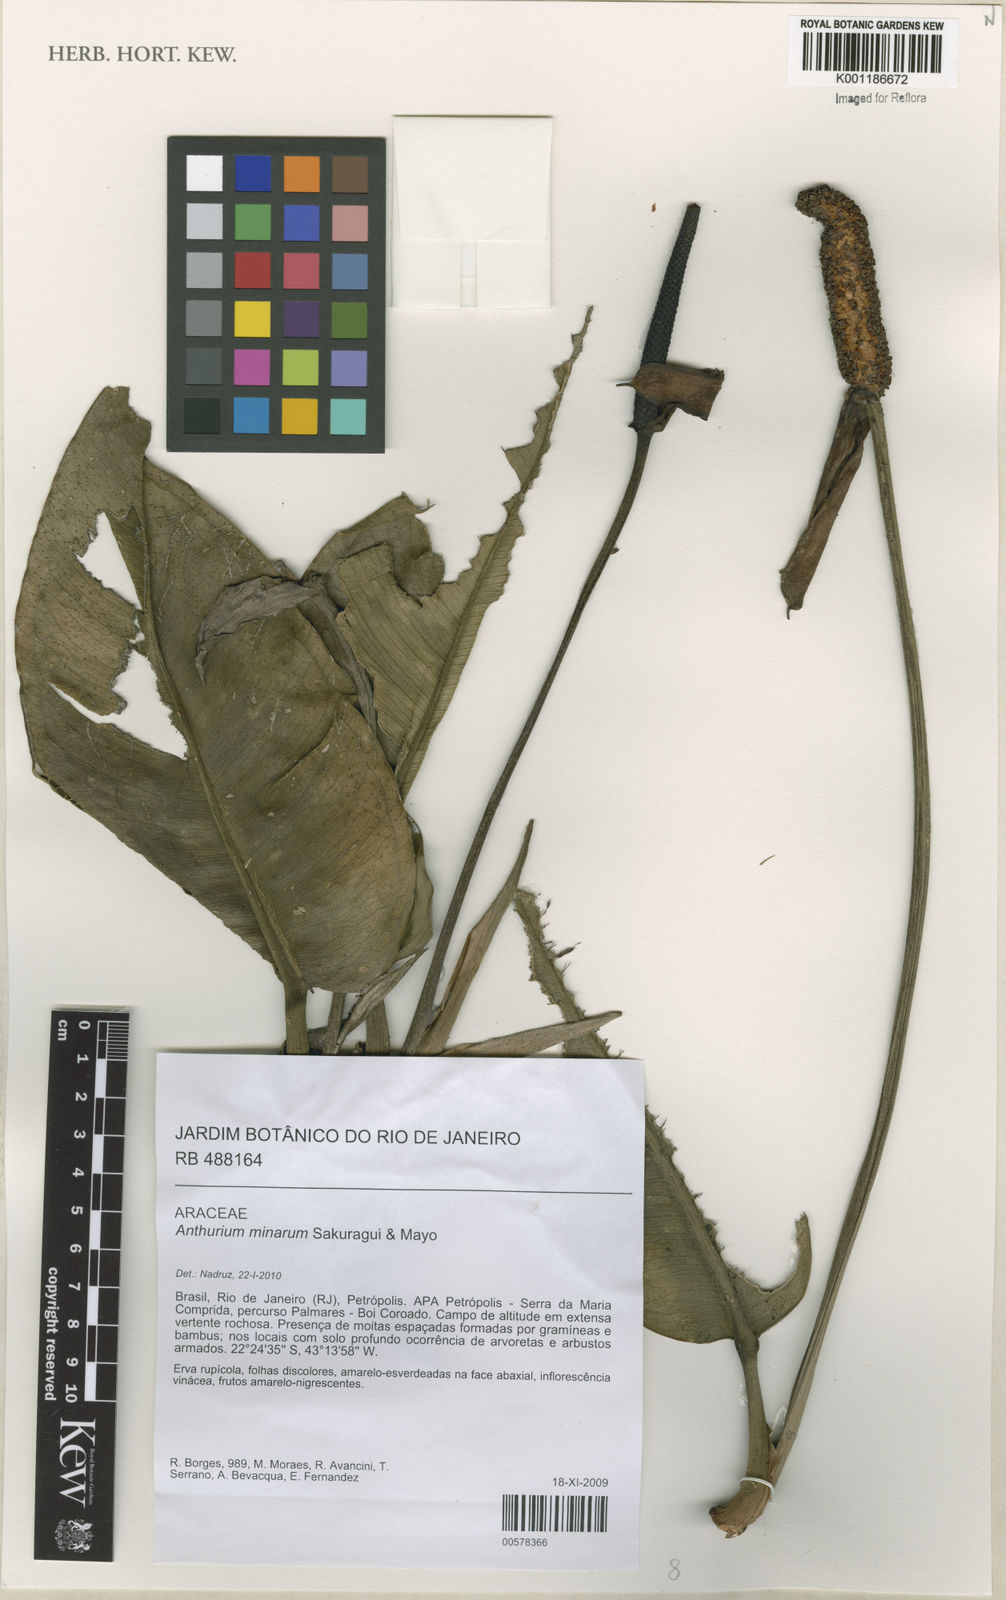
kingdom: Plantae
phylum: Tracheophyta
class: Liliopsida
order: Alismatales
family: Araceae
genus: Anthurium
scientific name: Anthurium minarum
